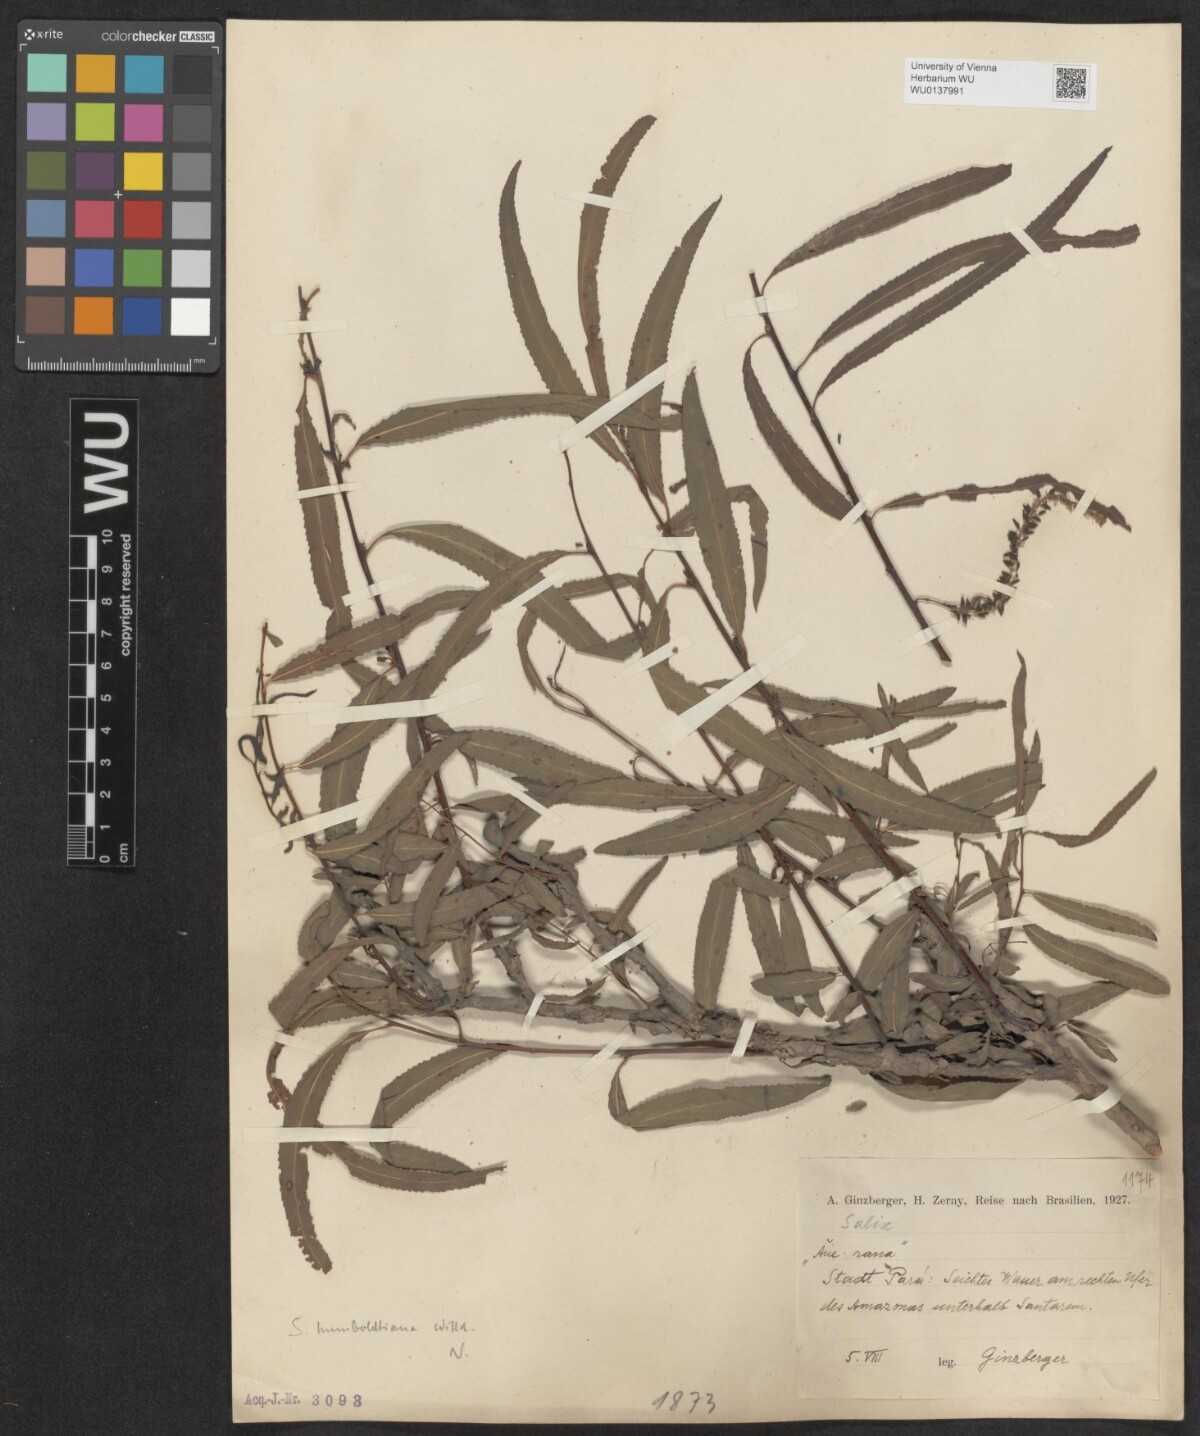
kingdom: Plantae
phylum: Tracheophyta
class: Magnoliopsida
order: Malpighiales
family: Salicaceae
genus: Salix
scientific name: Salix humboldtiana
